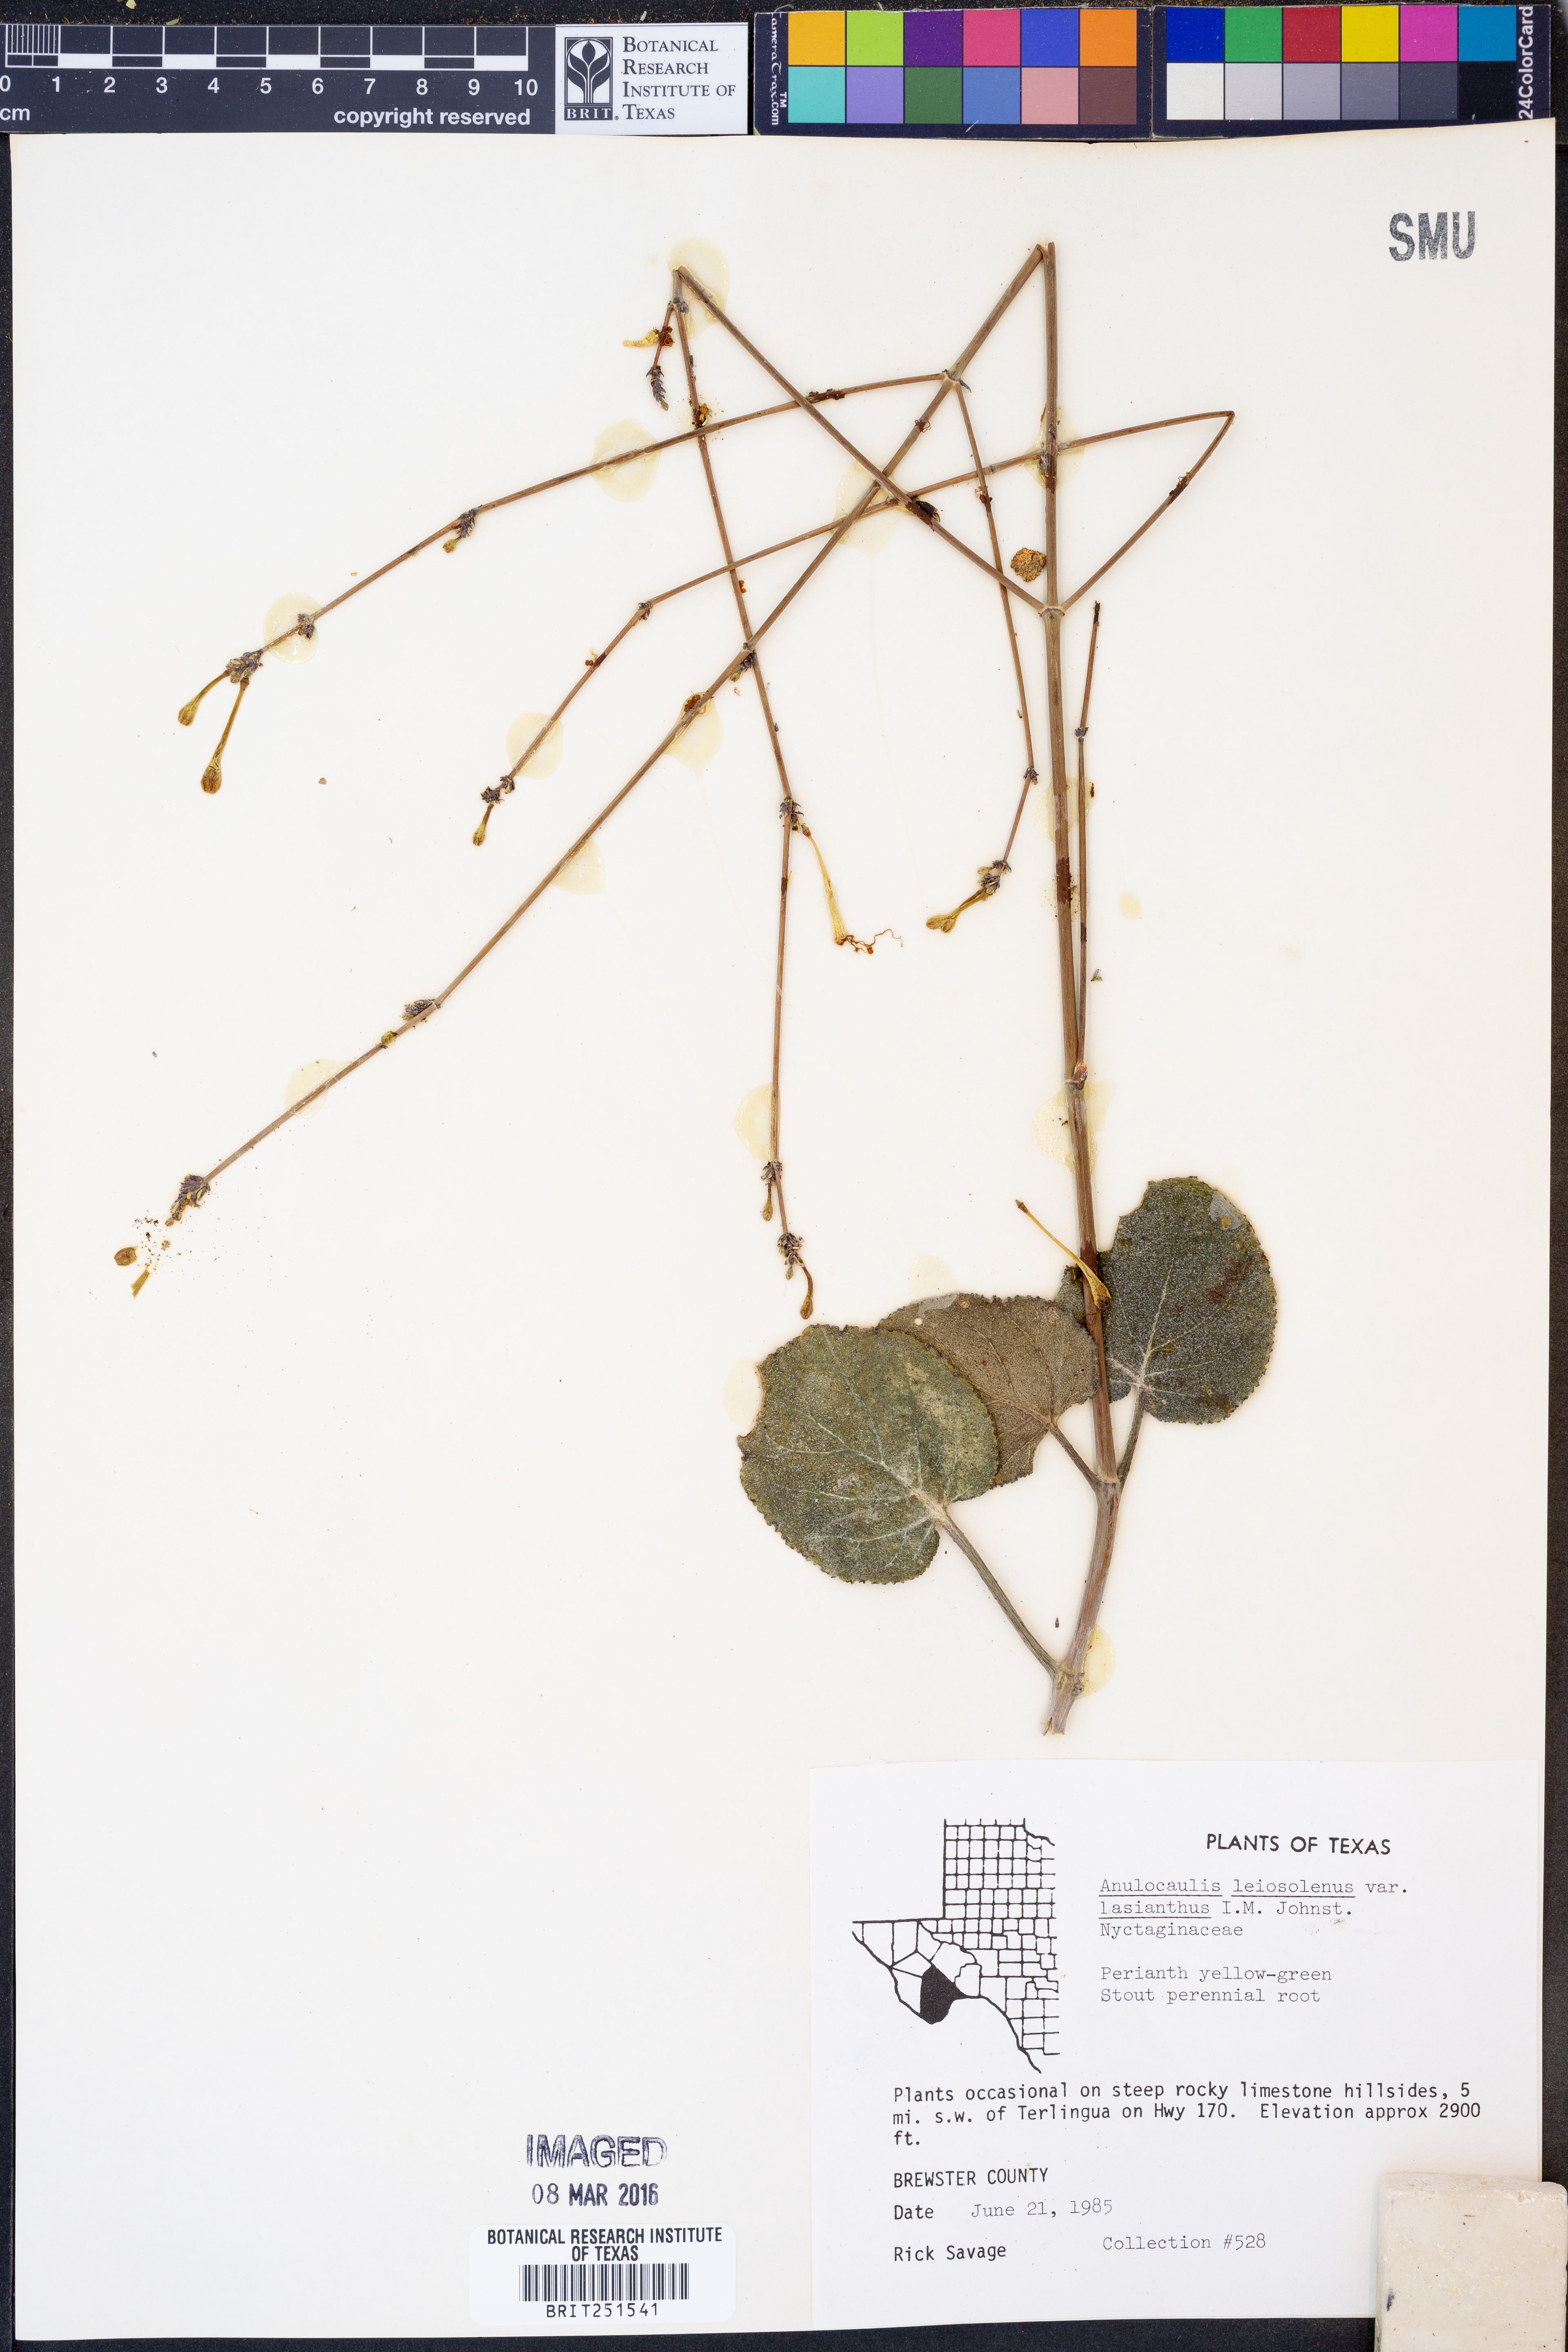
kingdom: Plantae
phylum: Tracheophyta
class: Magnoliopsida
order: Caryophyllales
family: Nyctaginaceae
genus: Anulocaulis
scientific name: Anulocaulis leiosolenus
